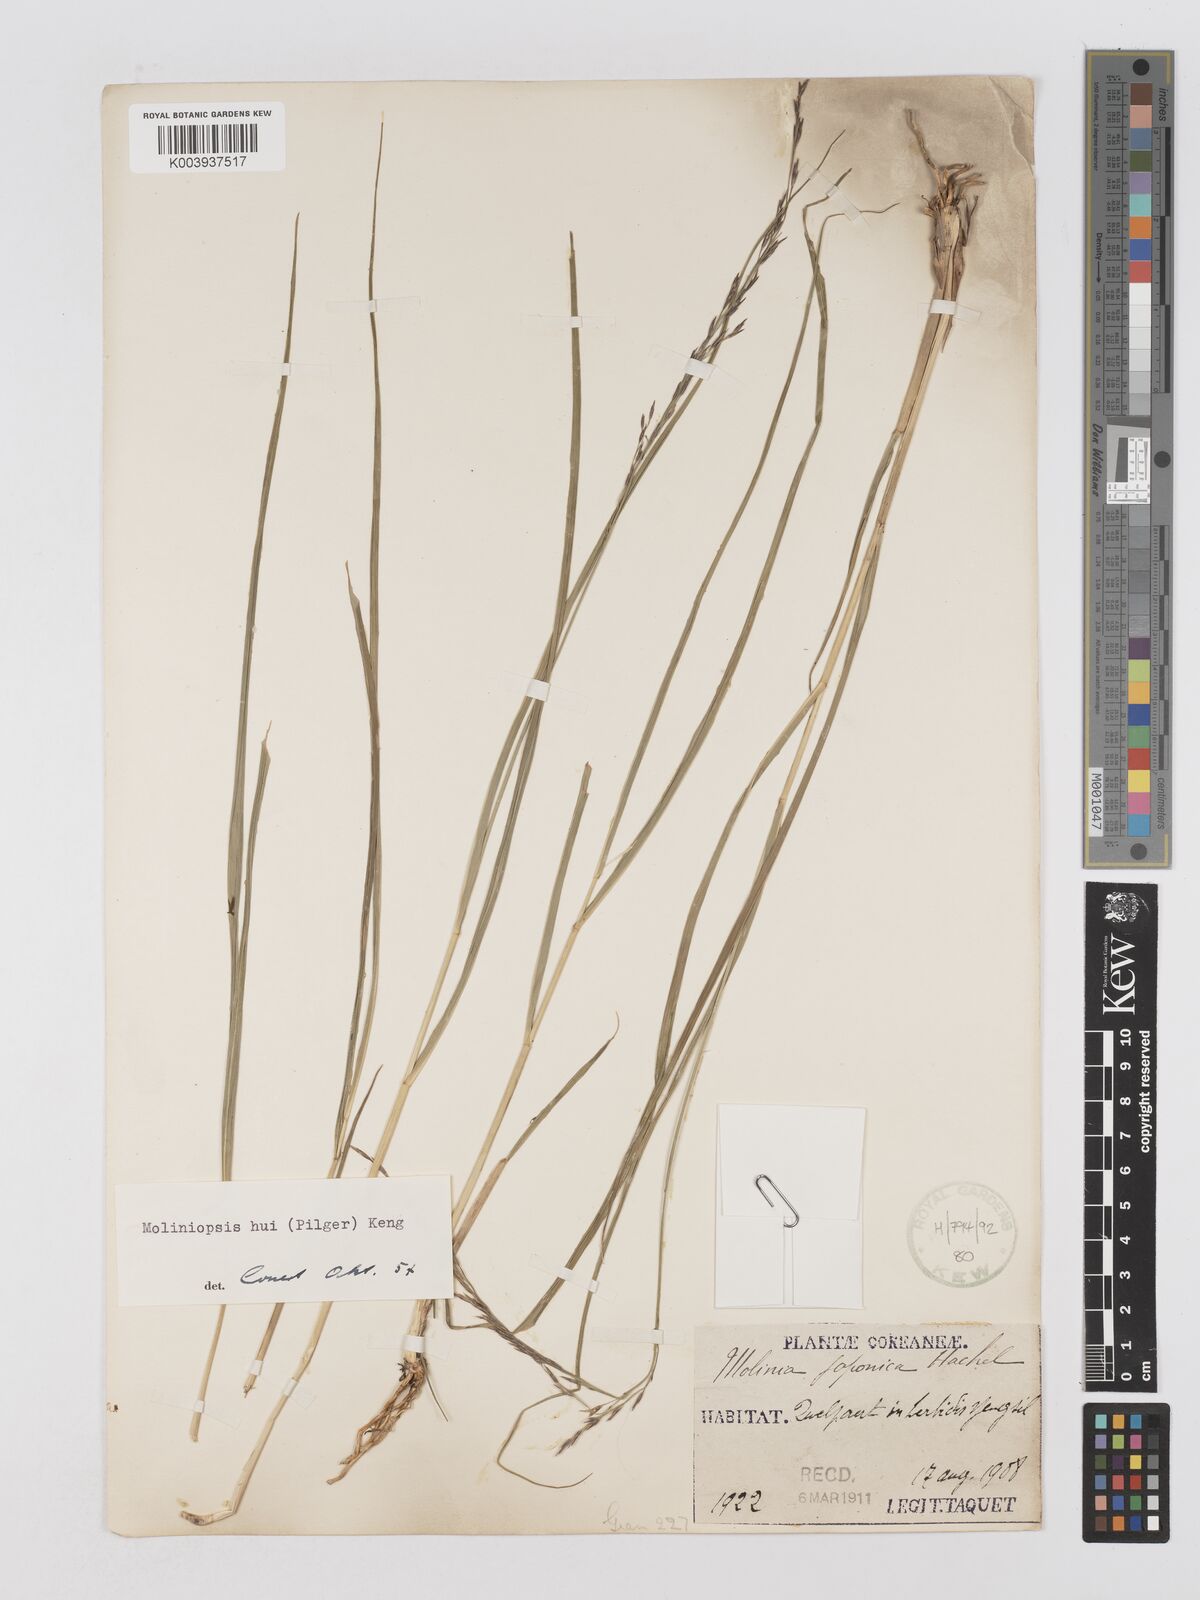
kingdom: Plantae
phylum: Tracheophyta
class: Liliopsida
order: Poales
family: Poaceae
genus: Moliniopsis
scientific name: Moliniopsis japonica
